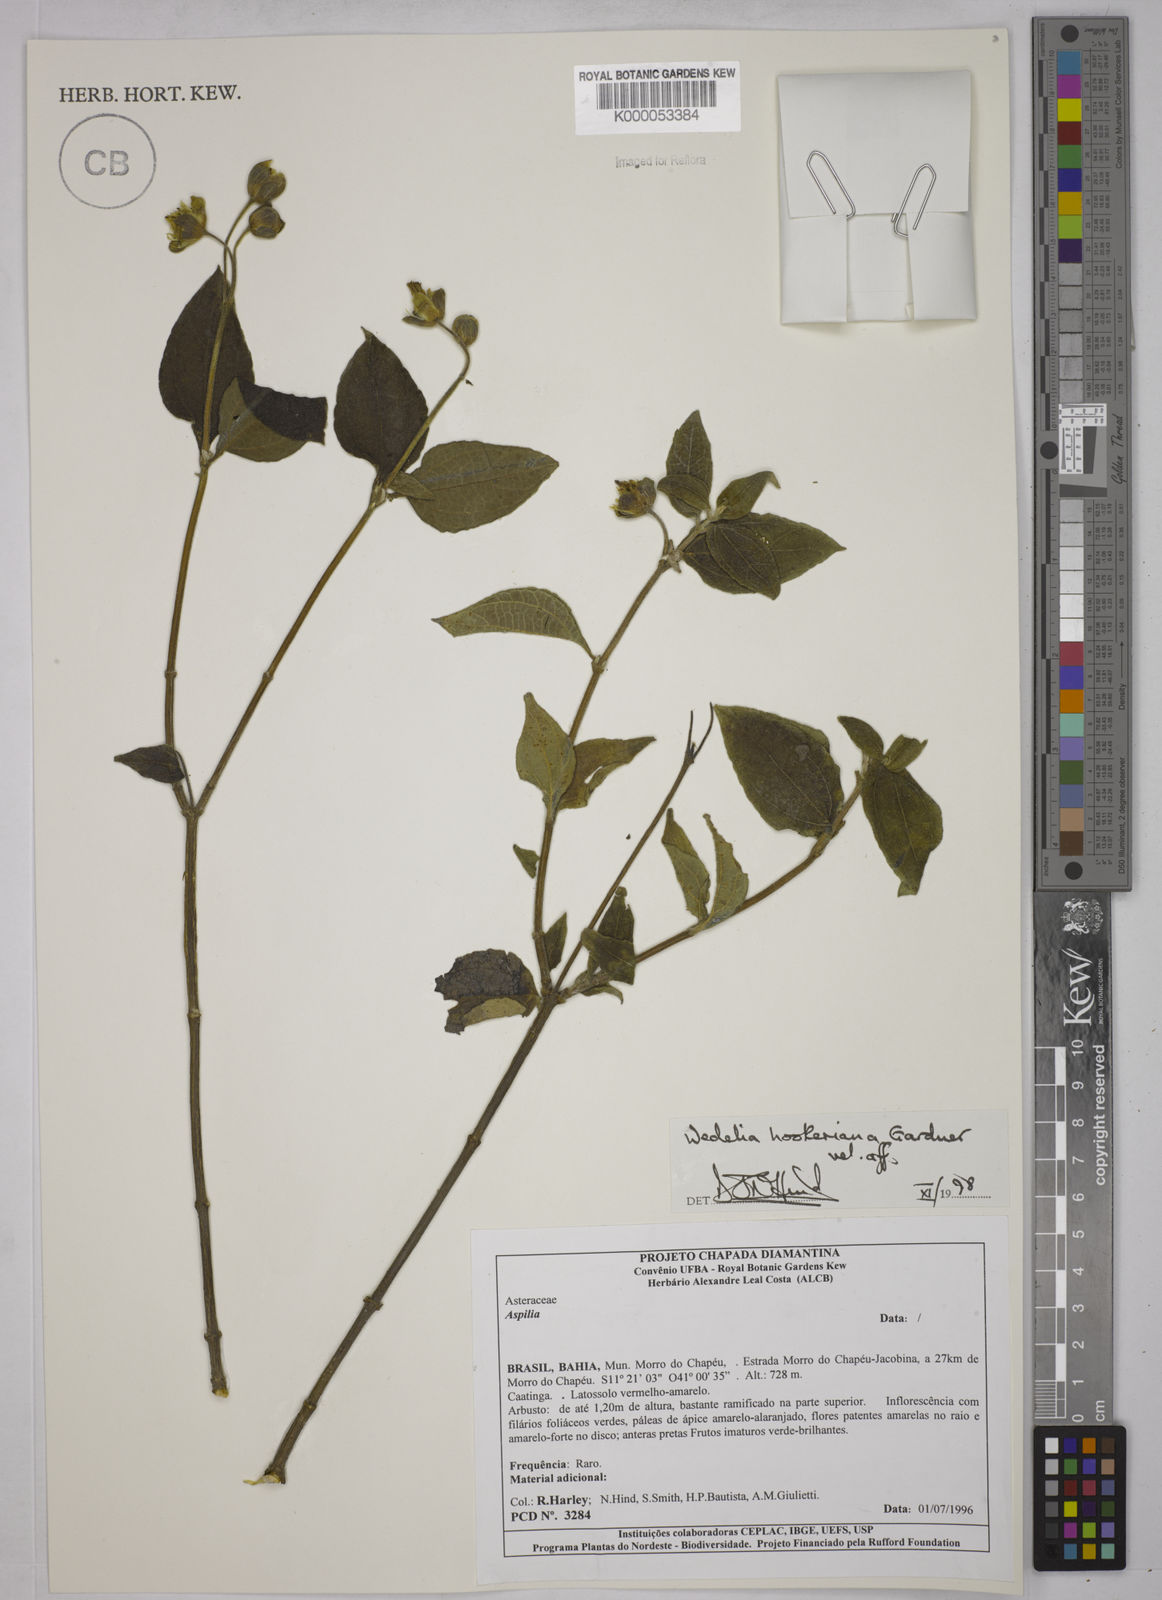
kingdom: Plantae
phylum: Tracheophyta
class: Magnoliopsida
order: Asterales
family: Asteraceae
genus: Wedelia
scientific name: Wedelia hookeriana
